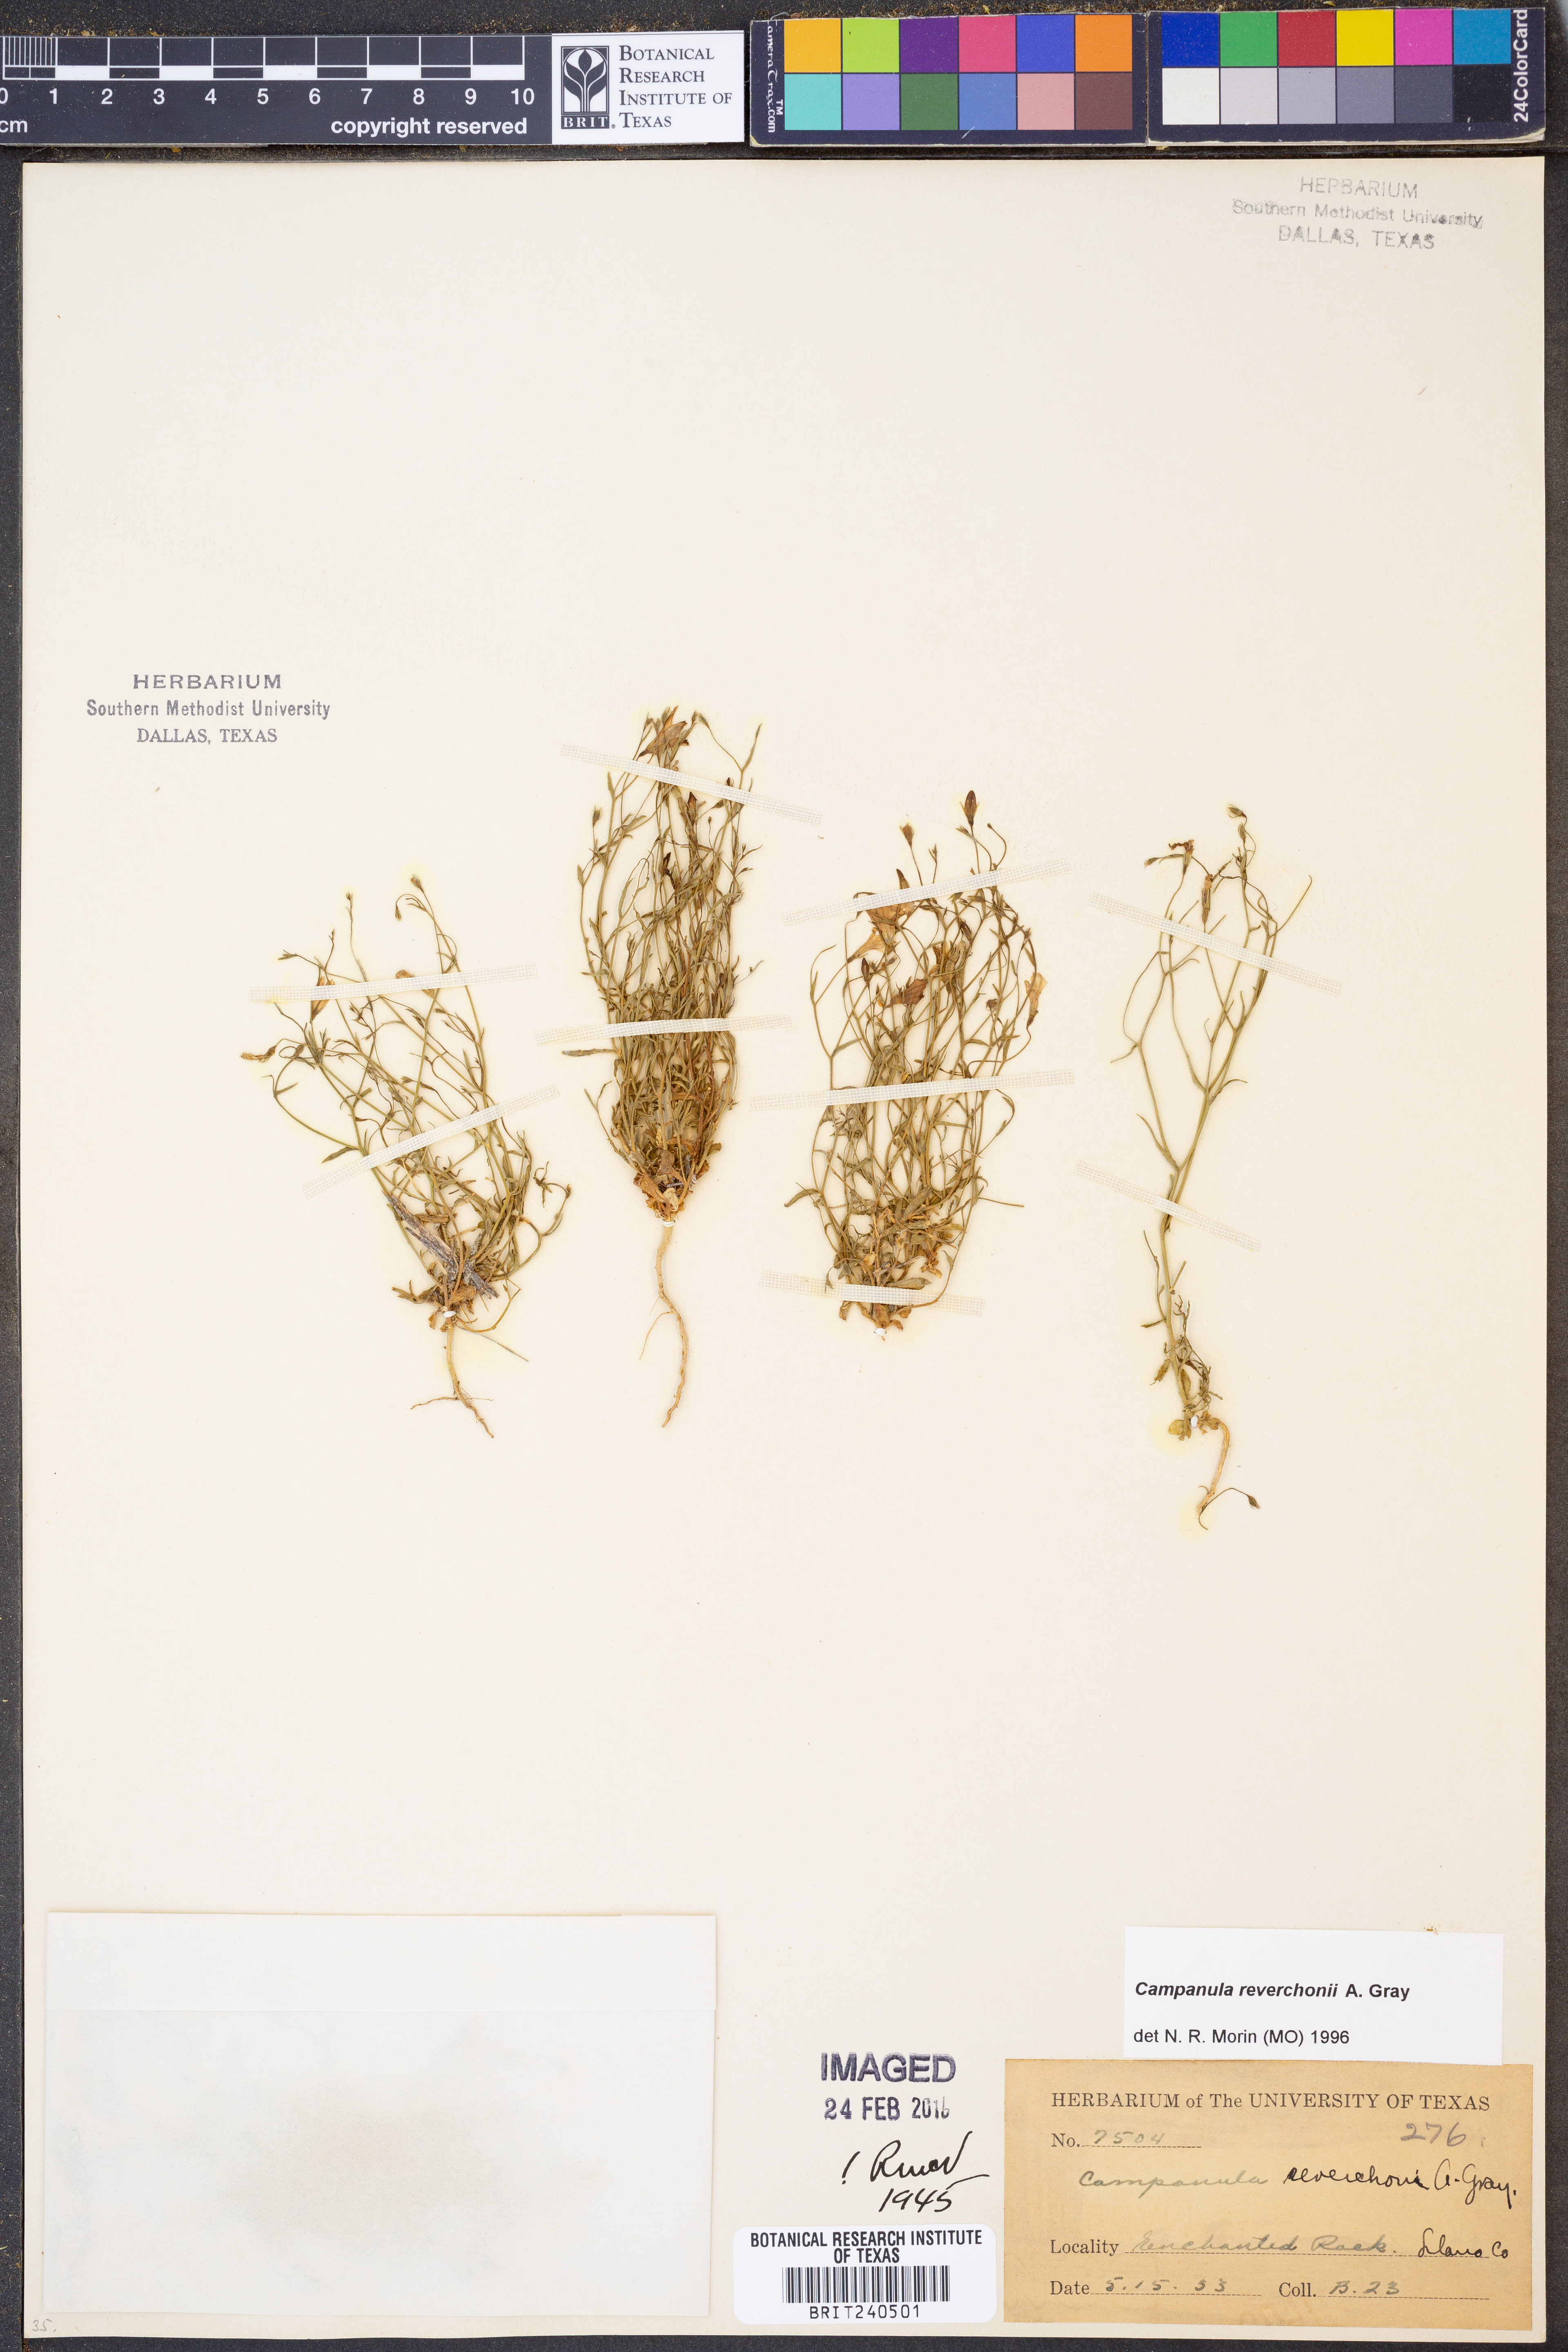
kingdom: Plantae
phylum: Tracheophyta
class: Magnoliopsida
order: Asterales
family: Campanulaceae
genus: Poolea
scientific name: Poolea reverchonii
